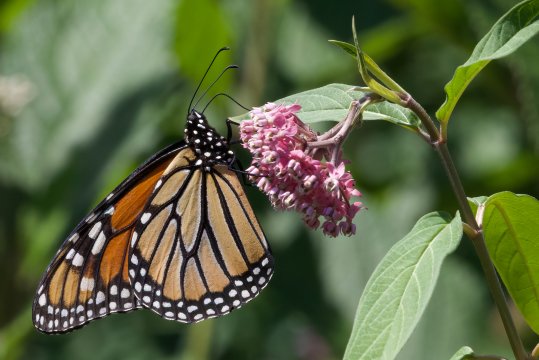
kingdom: Animalia
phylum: Arthropoda
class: Insecta
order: Lepidoptera
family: Nymphalidae
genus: Danaus
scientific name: Danaus plexippus
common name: Monarch
